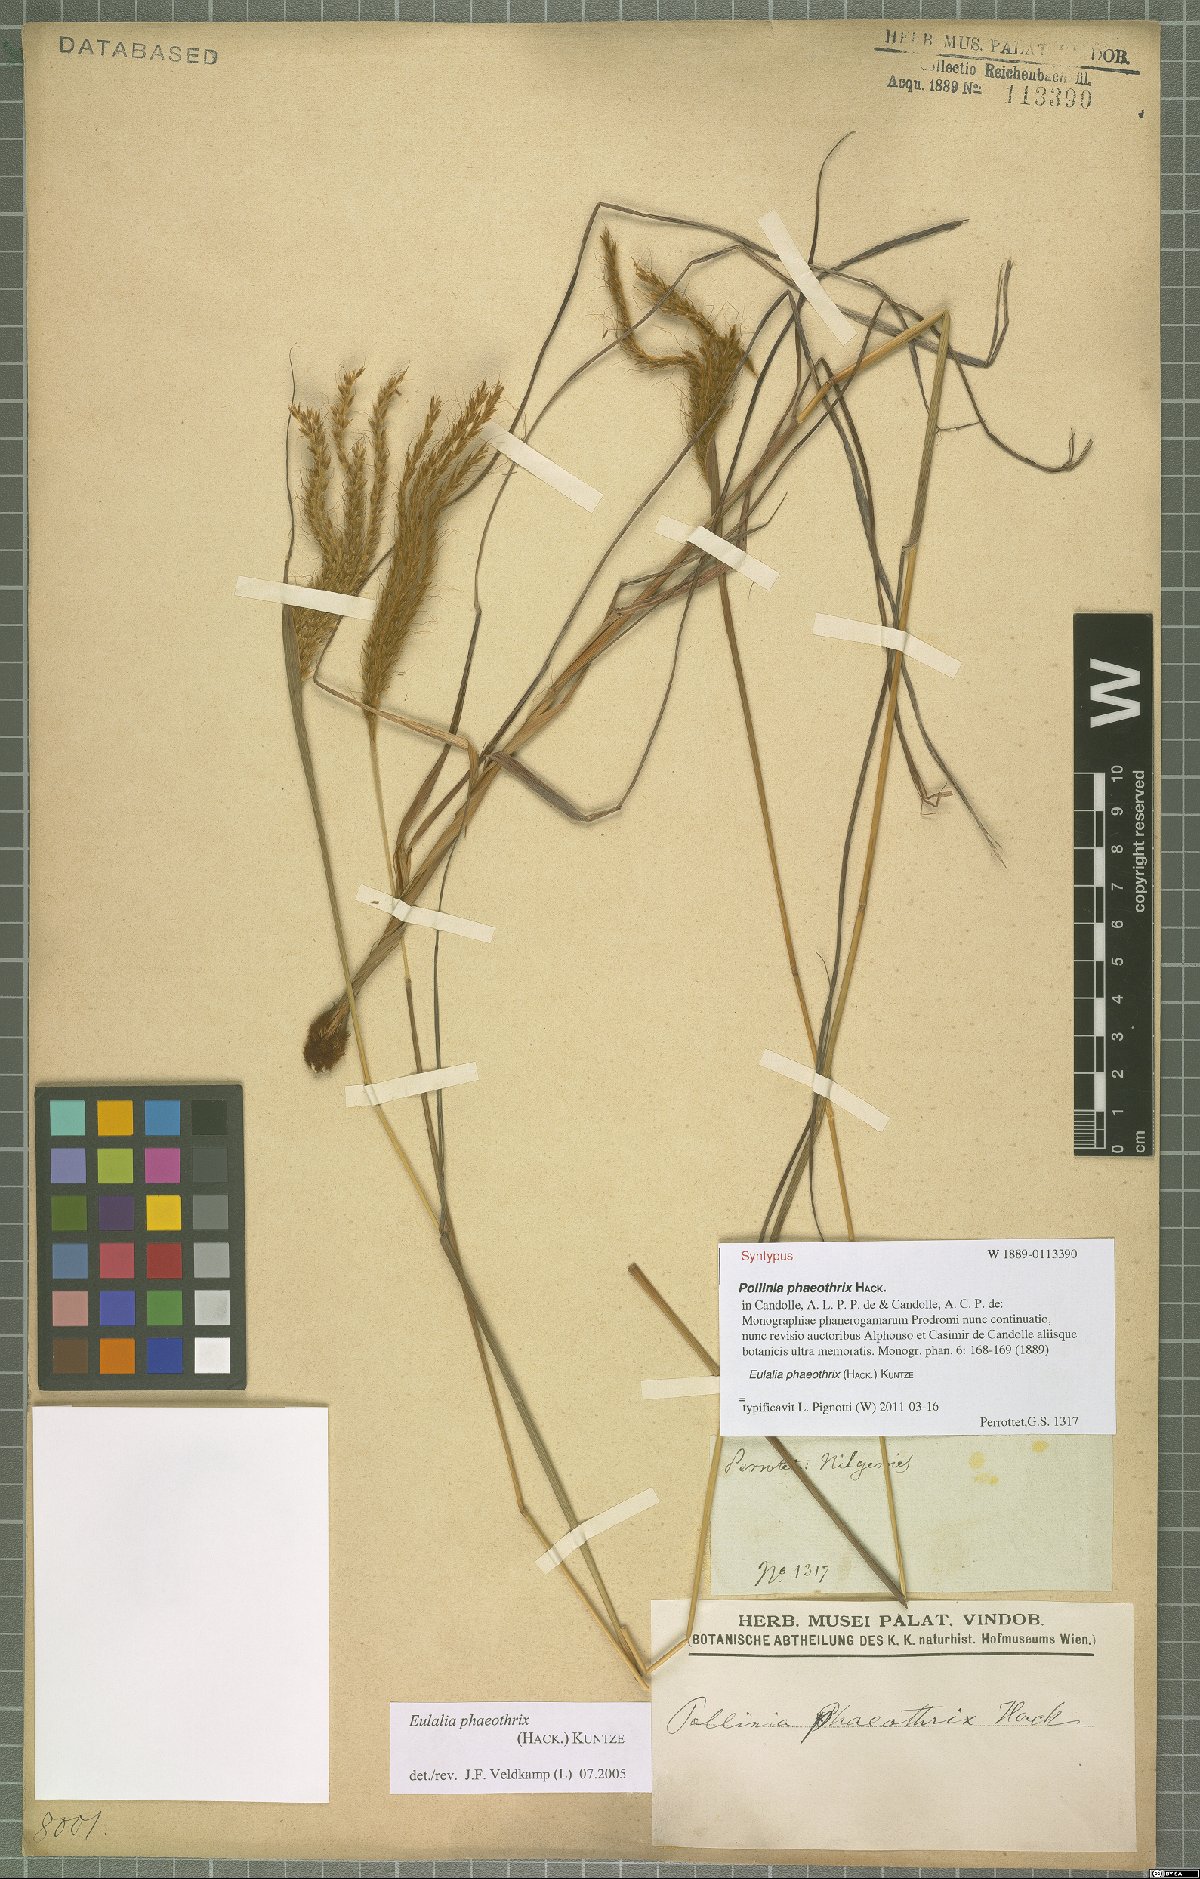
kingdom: Plantae
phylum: Tracheophyta
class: Liliopsida
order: Poales
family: Poaceae
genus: Eulalia
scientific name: Eulalia phaeothrix
